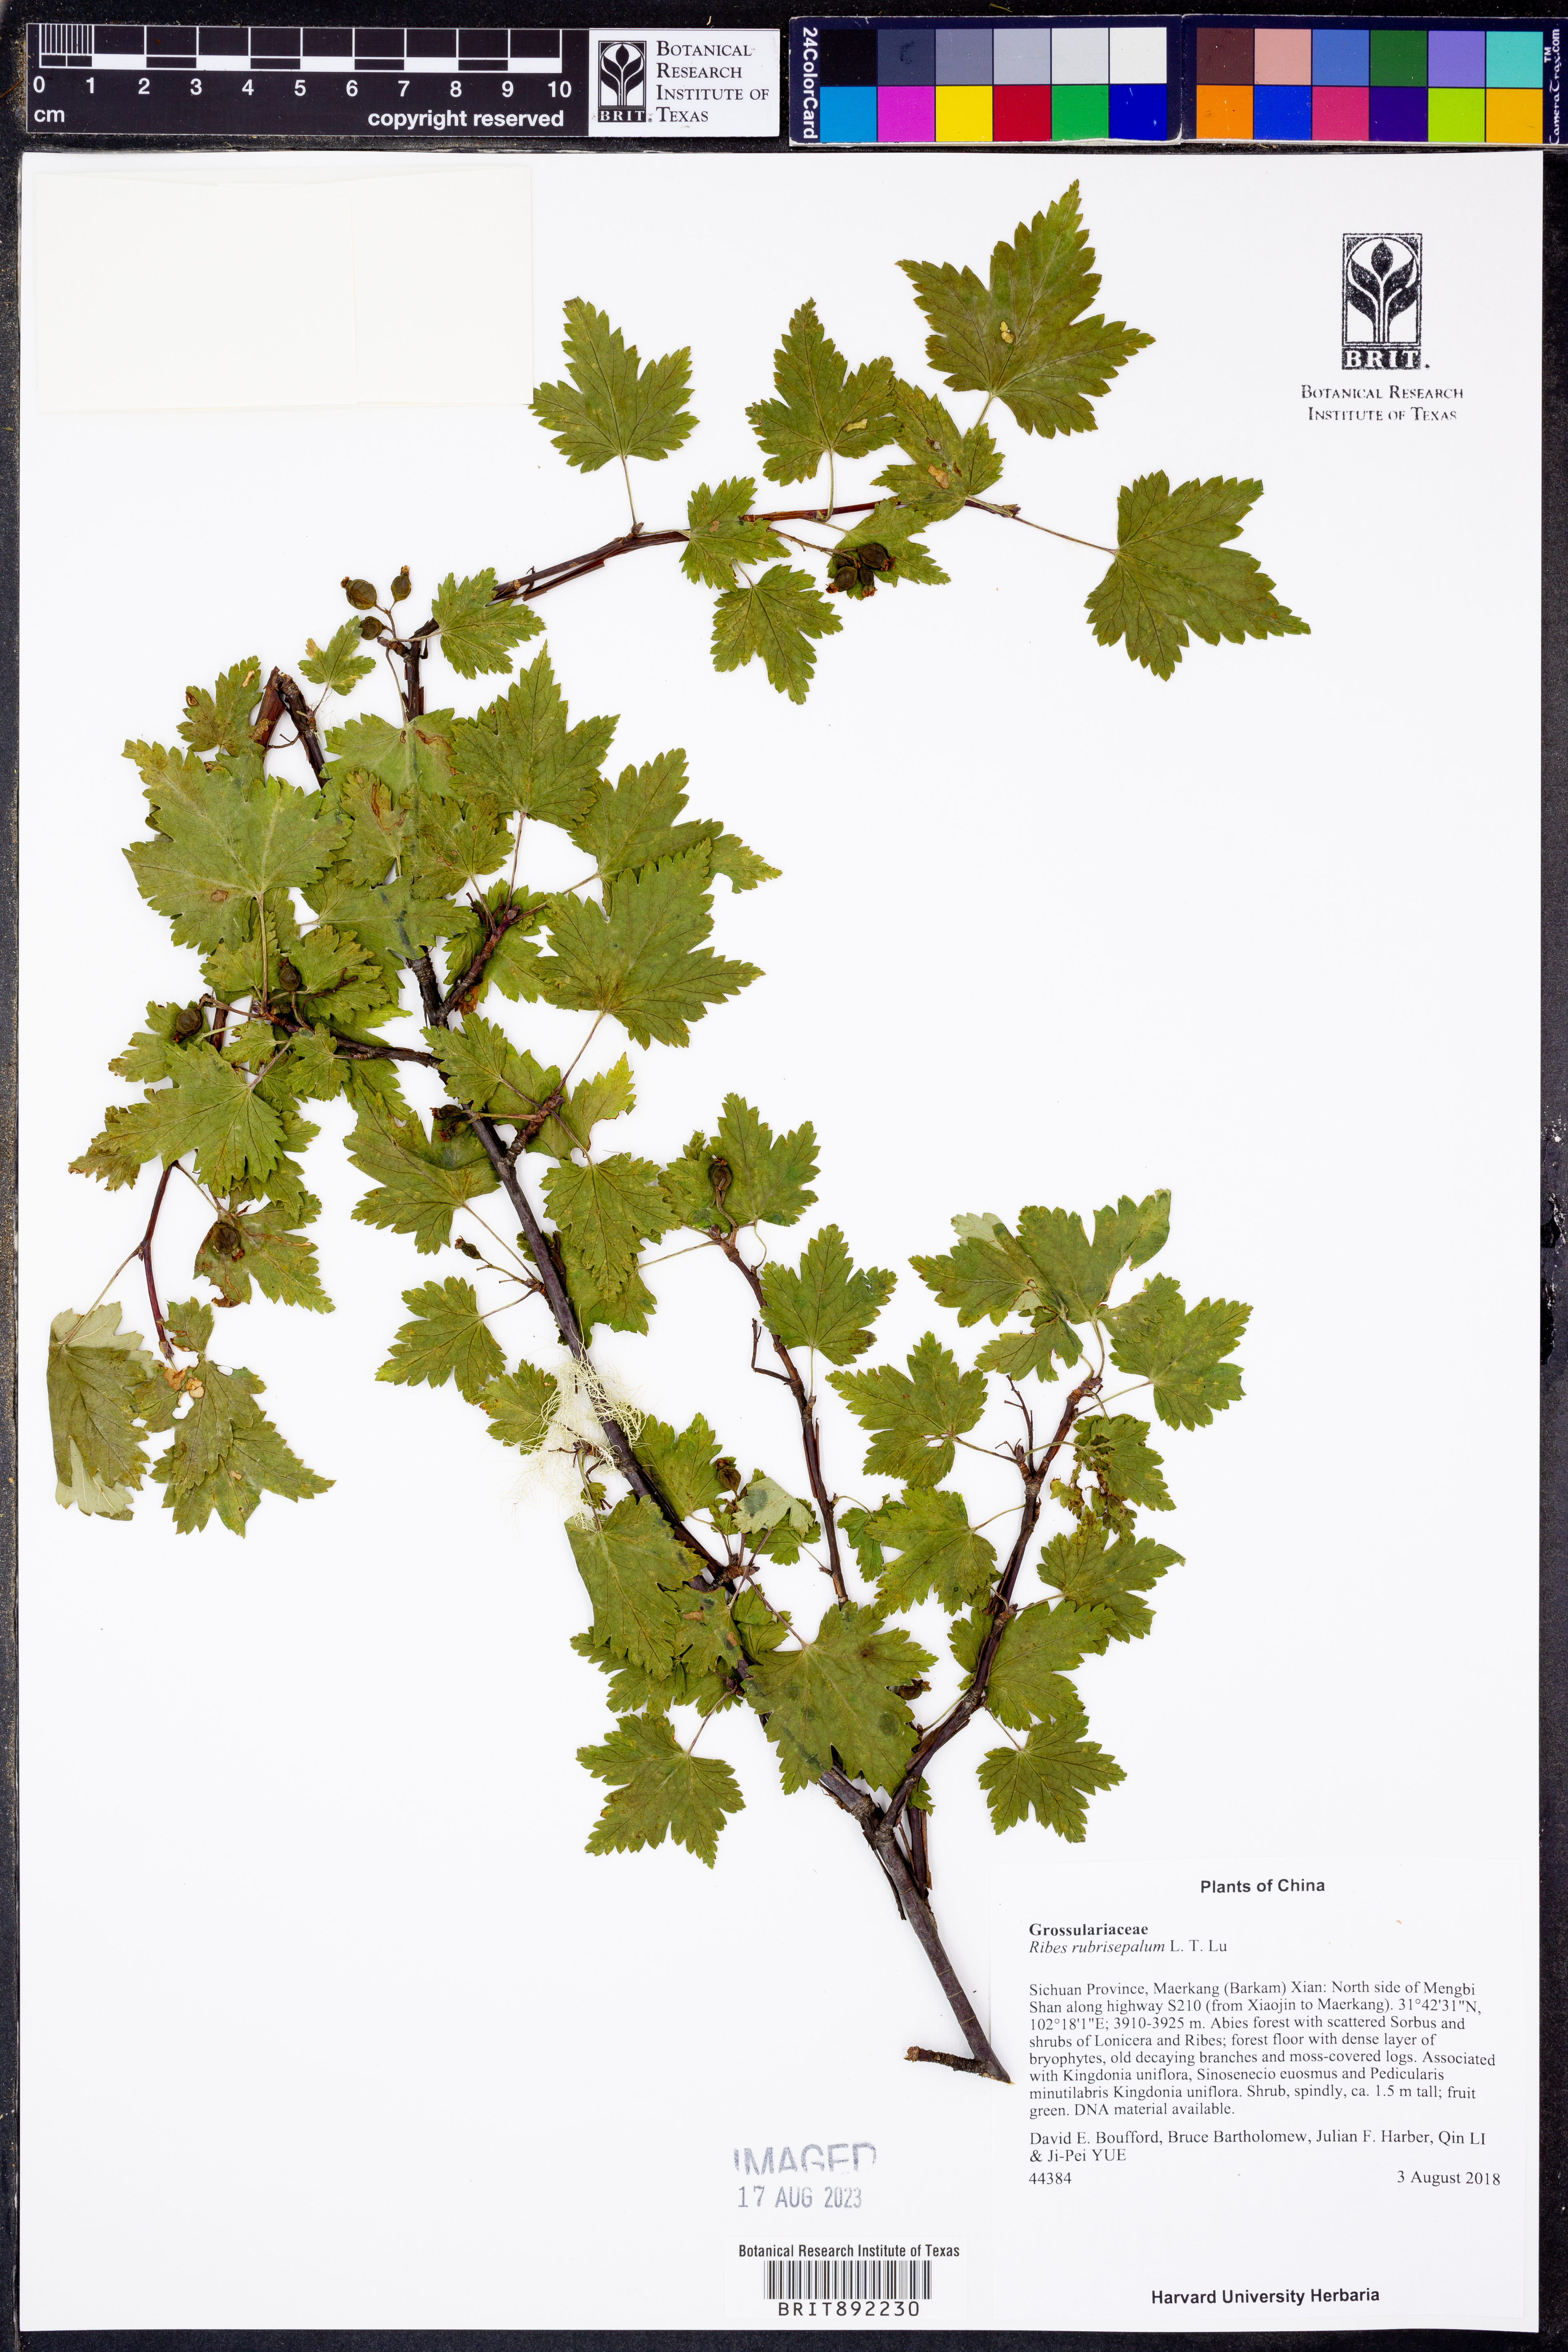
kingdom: Plantae
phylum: Tracheophyta
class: Magnoliopsida
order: Saxifragales
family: Grossulariaceae
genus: Ribes
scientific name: Ribes rubrisepalum
